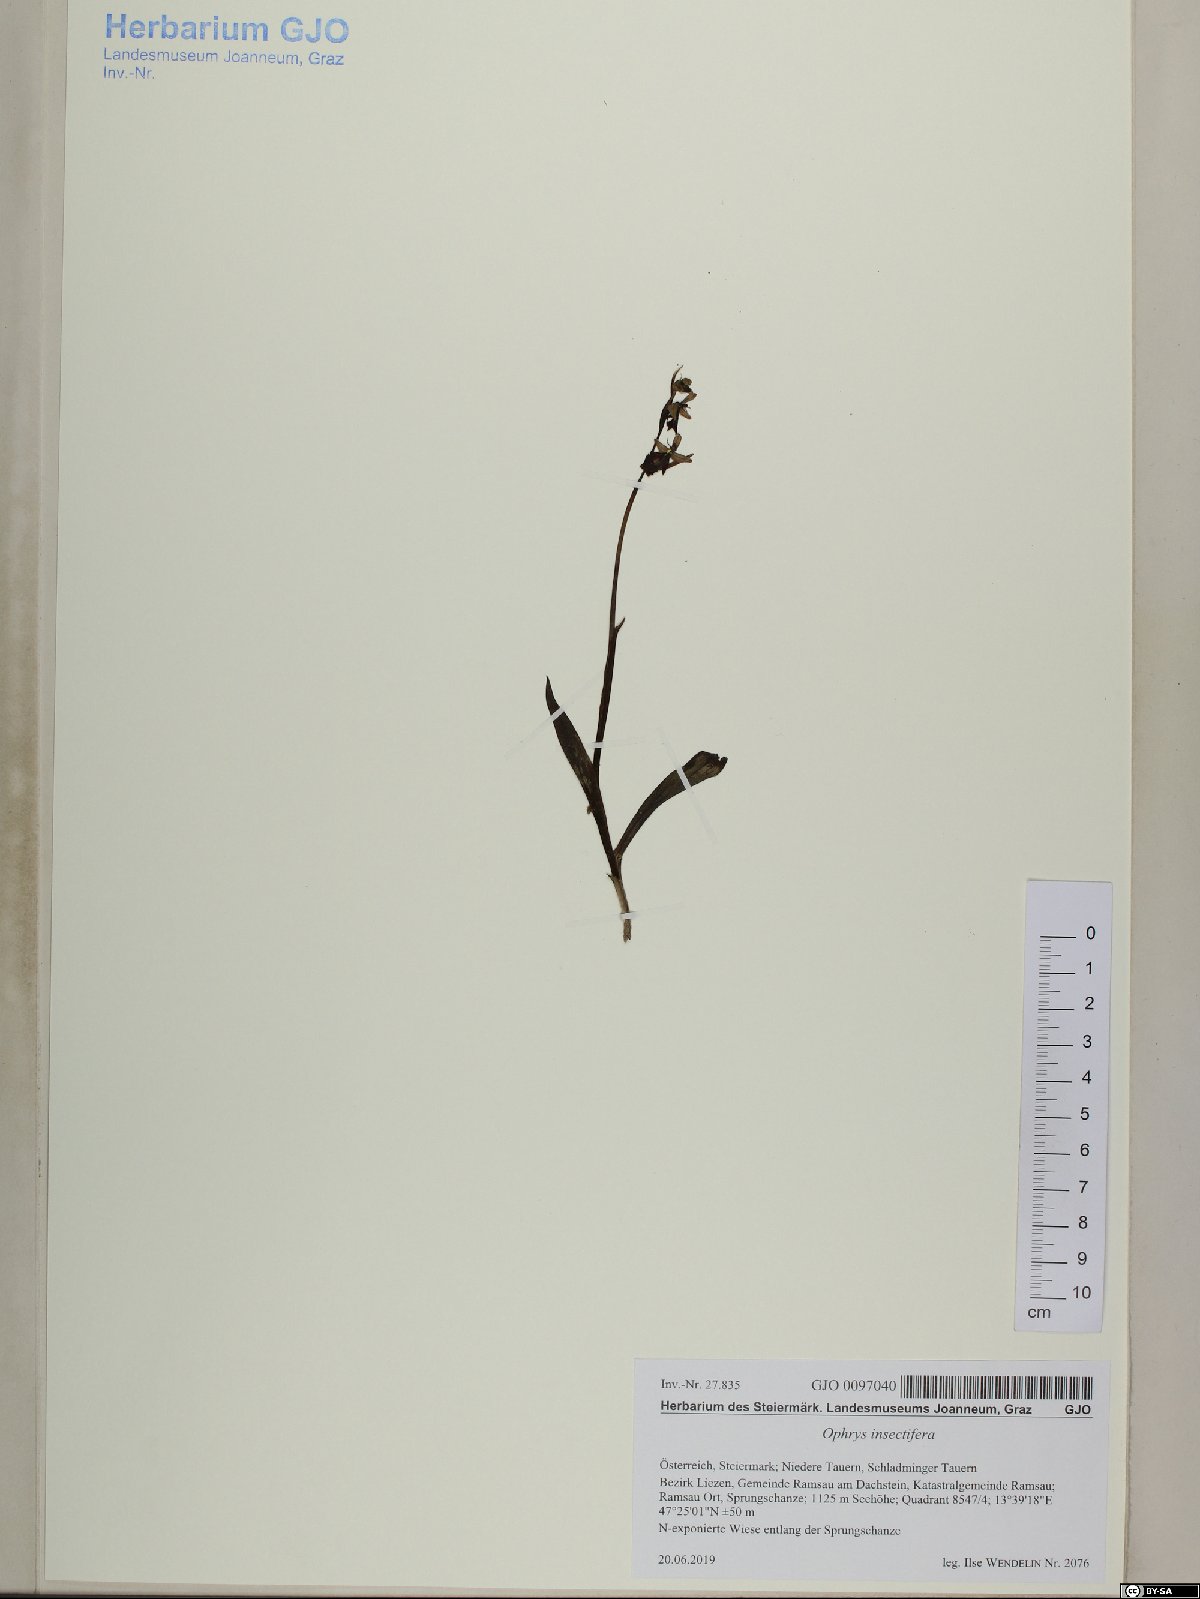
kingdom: Plantae
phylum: Tracheophyta
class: Liliopsida
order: Asparagales
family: Orchidaceae
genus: Ophrys
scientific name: Ophrys insectifera
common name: Fly orchid
